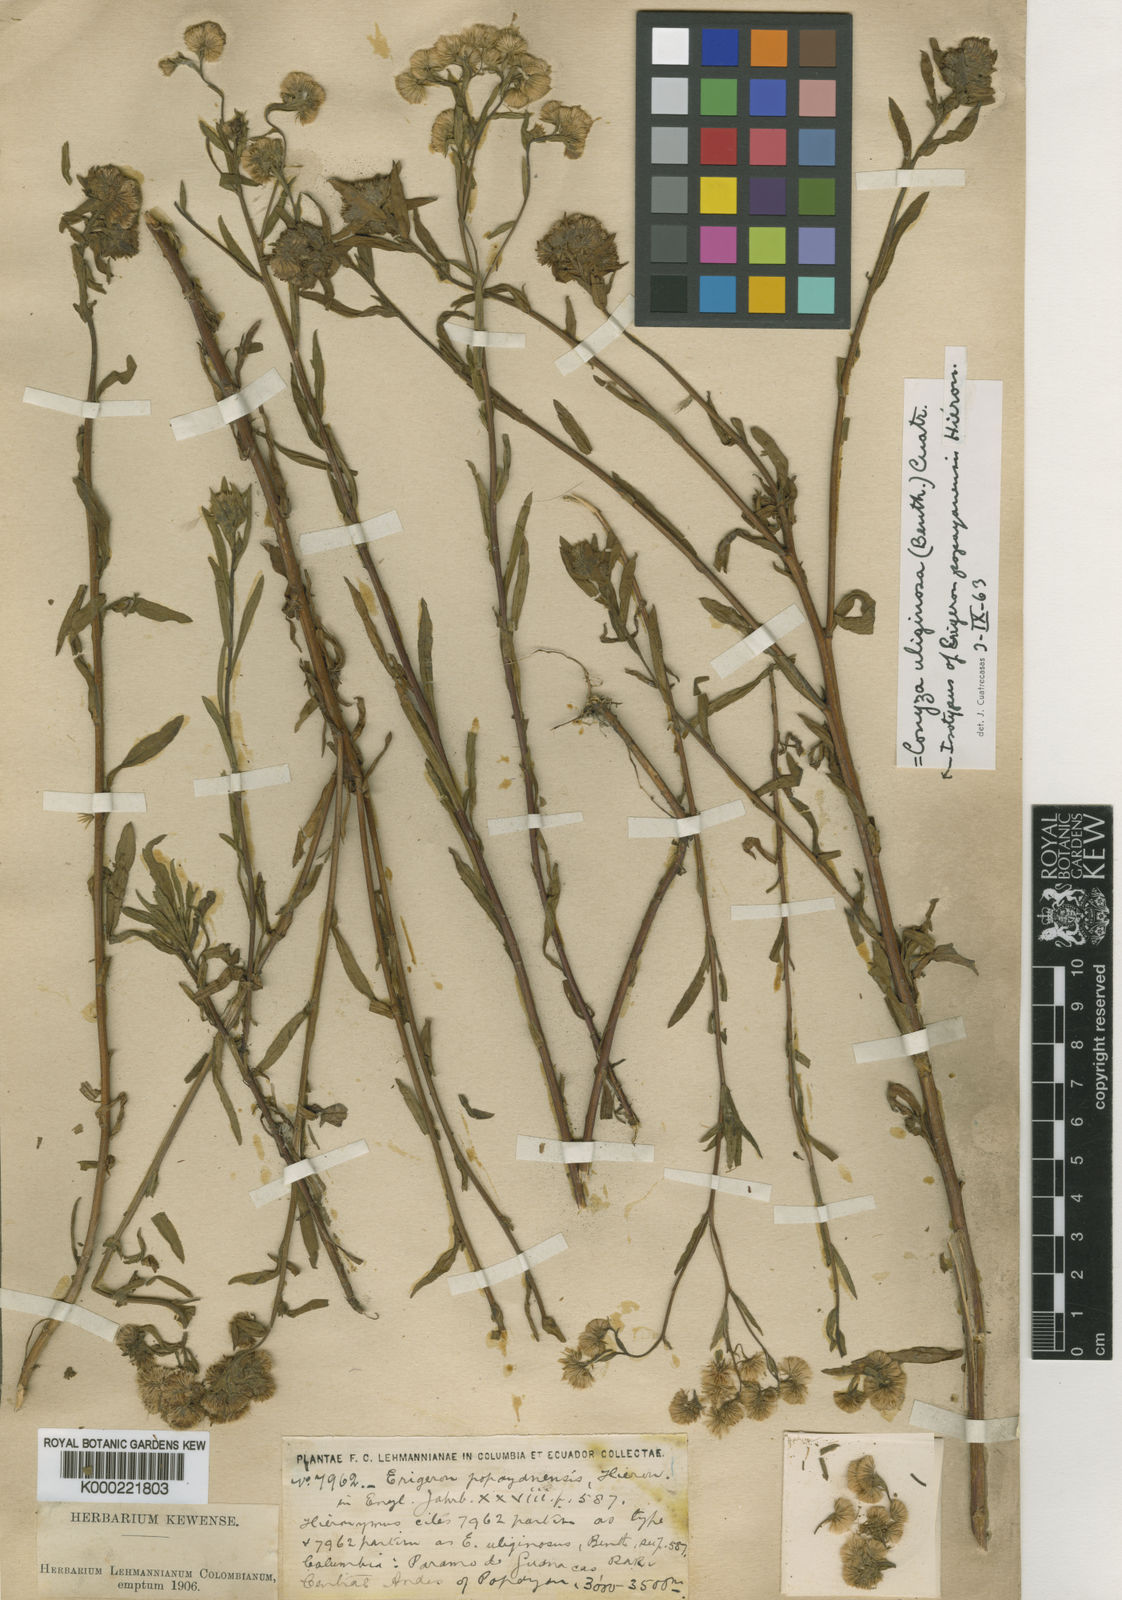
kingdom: Plantae
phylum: Tracheophyta
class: Magnoliopsida
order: Asterales
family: Asteraceae
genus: Erigeron
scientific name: Erigeron popayanensis
